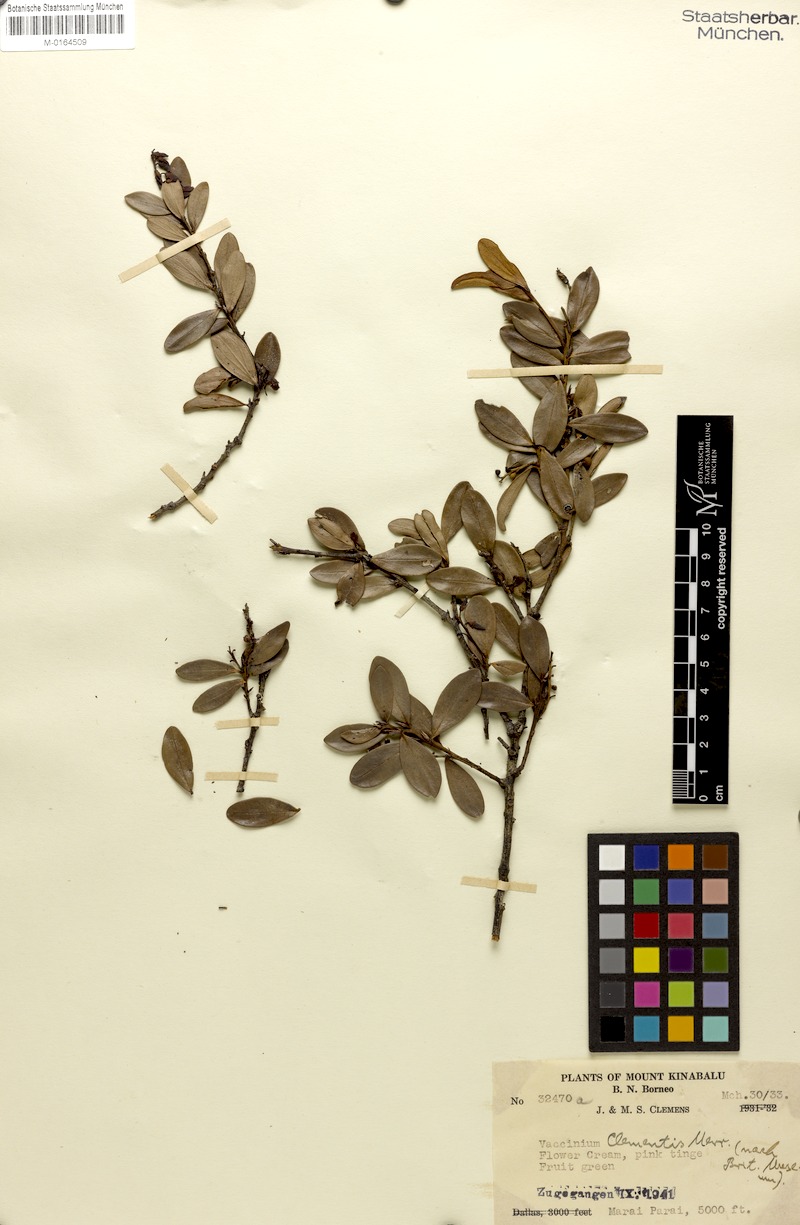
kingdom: Plantae
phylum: Tracheophyta
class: Magnoliopsida
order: Ericales
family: Ericaceae
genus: Vaccinium
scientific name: Vaccinium clementis
